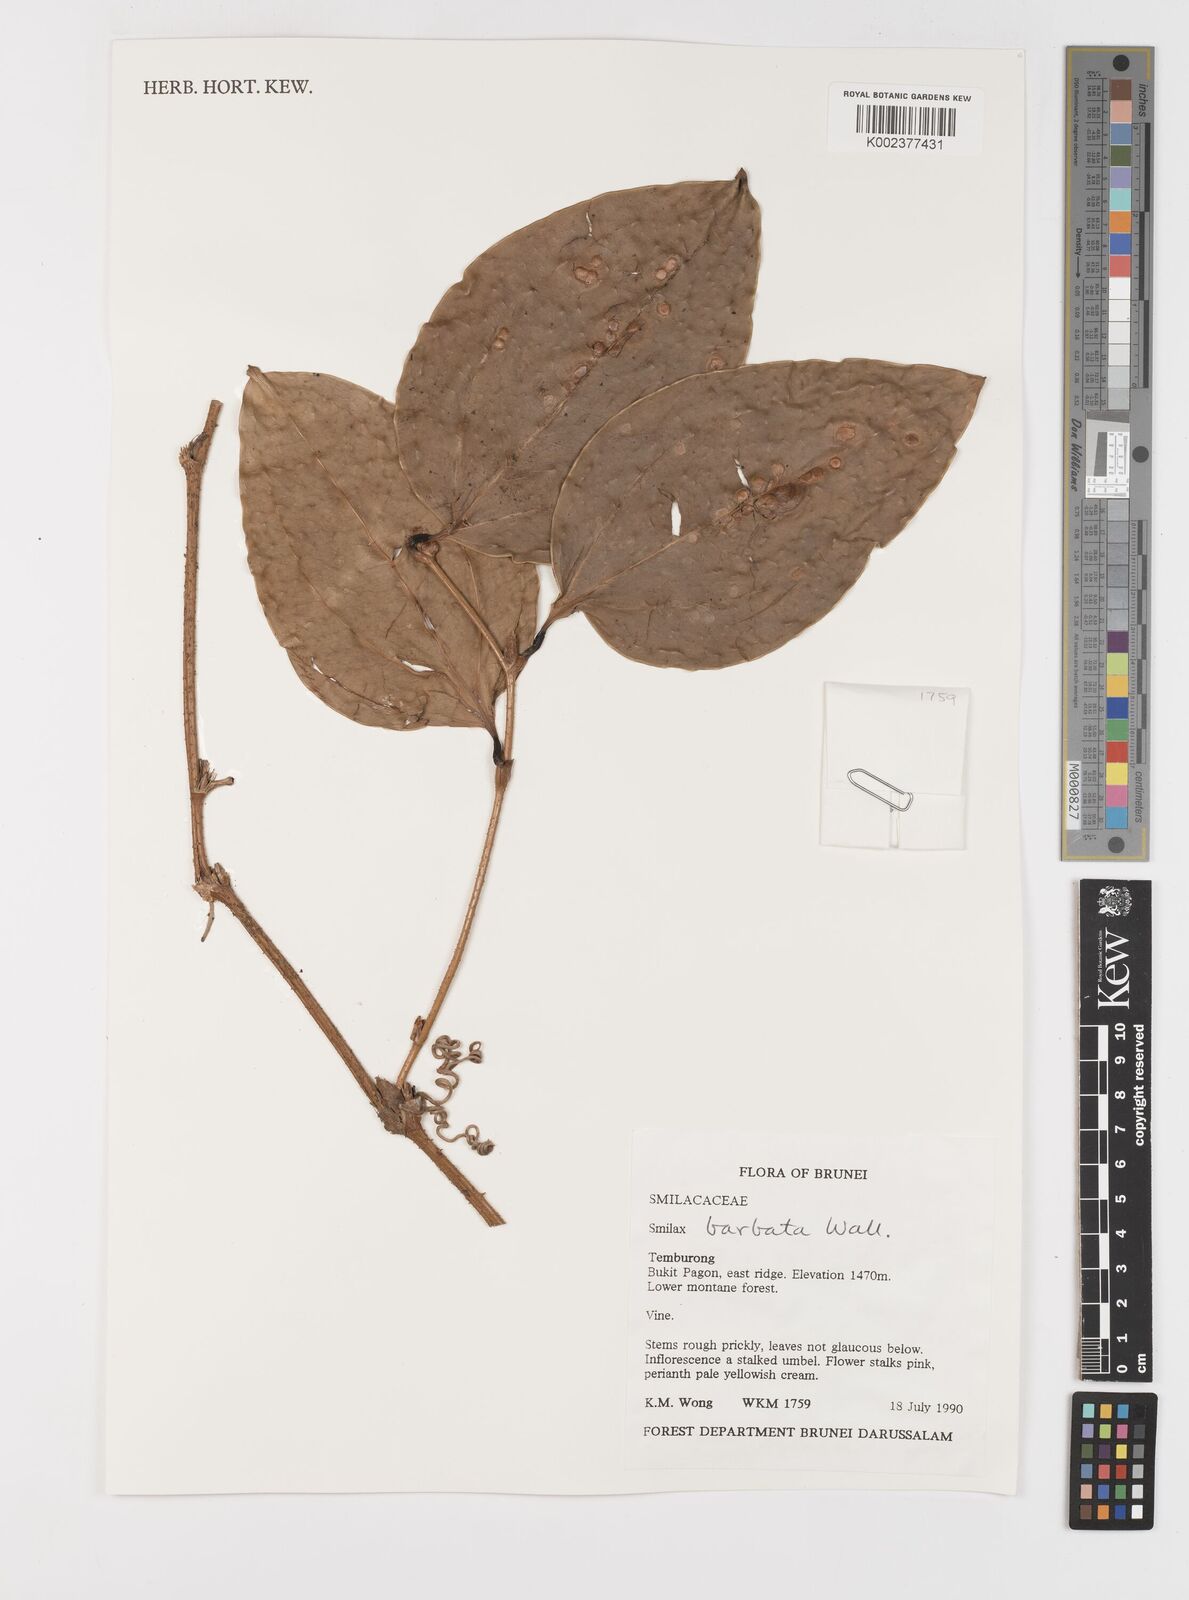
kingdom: Plantae
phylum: Tracheophyta
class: Liliopsida
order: Liliales
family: Smilacaceae
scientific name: Smilacaceae
